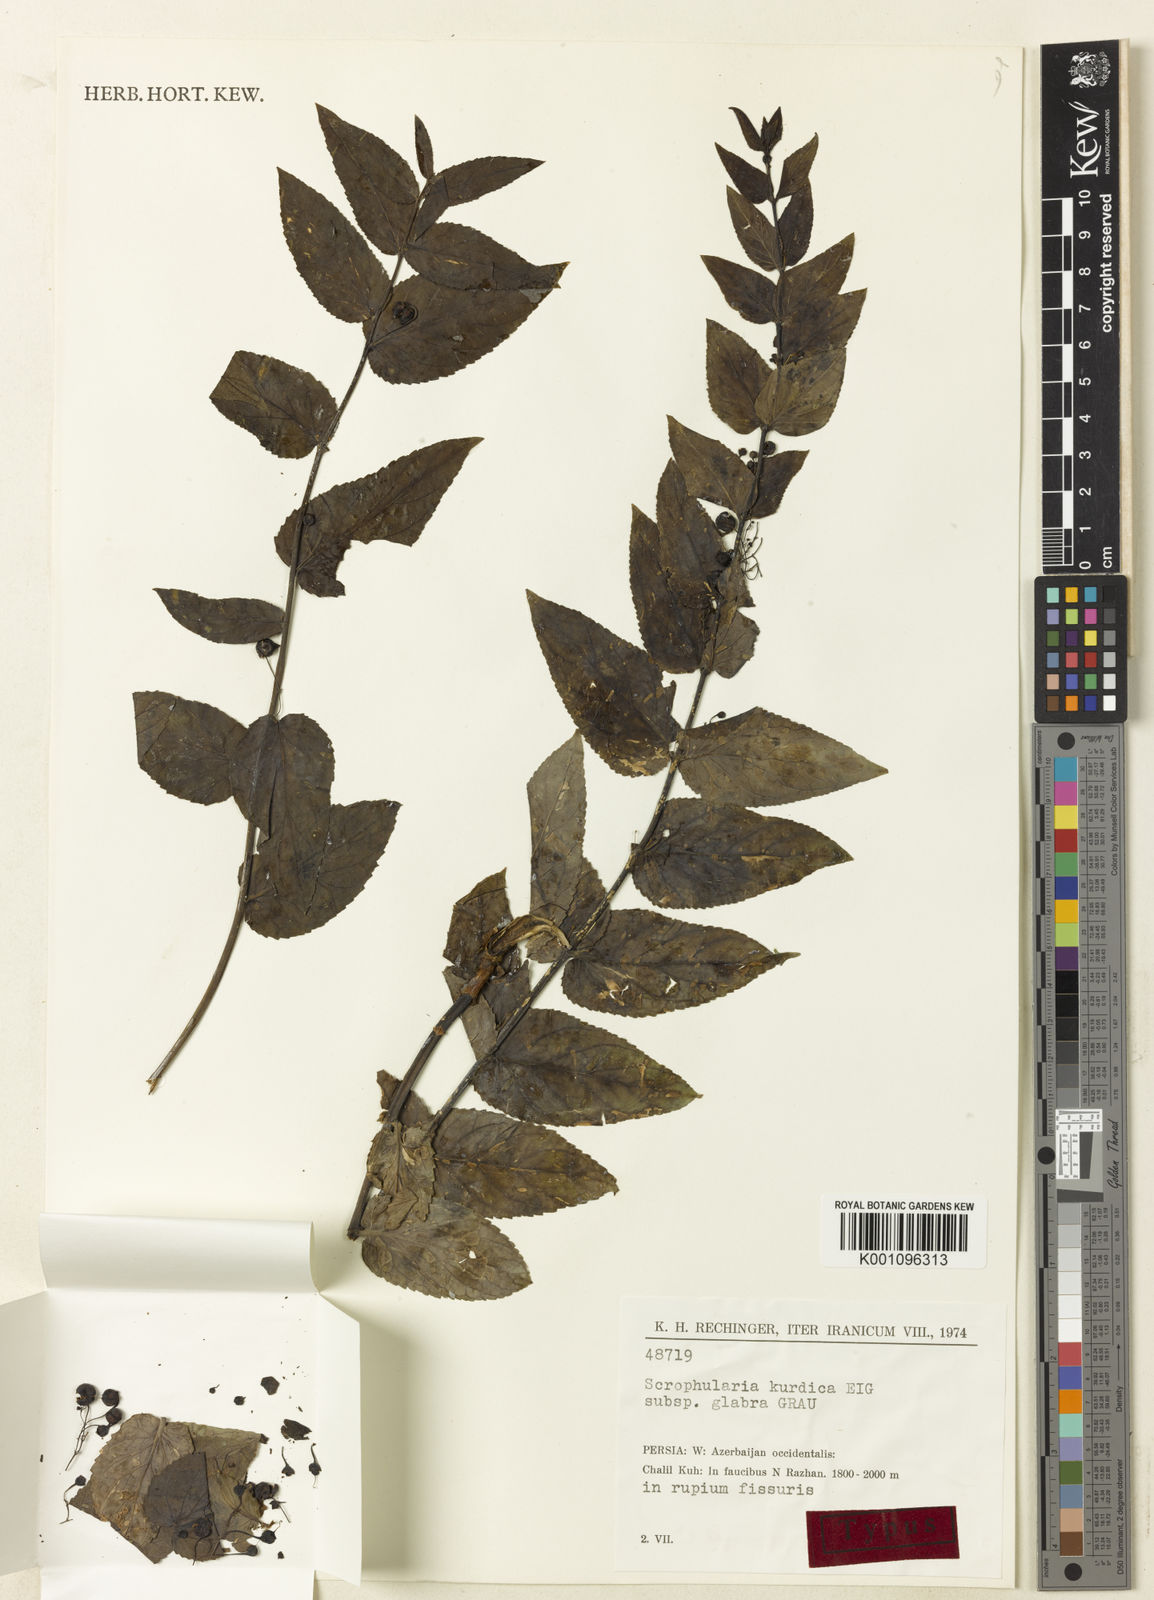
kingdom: Plantae
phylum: Tracheophyta
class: Magnoliopsida
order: Lamiales
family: Scrophulariaceae
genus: Scrophularia
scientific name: Scrophularia kurdica
